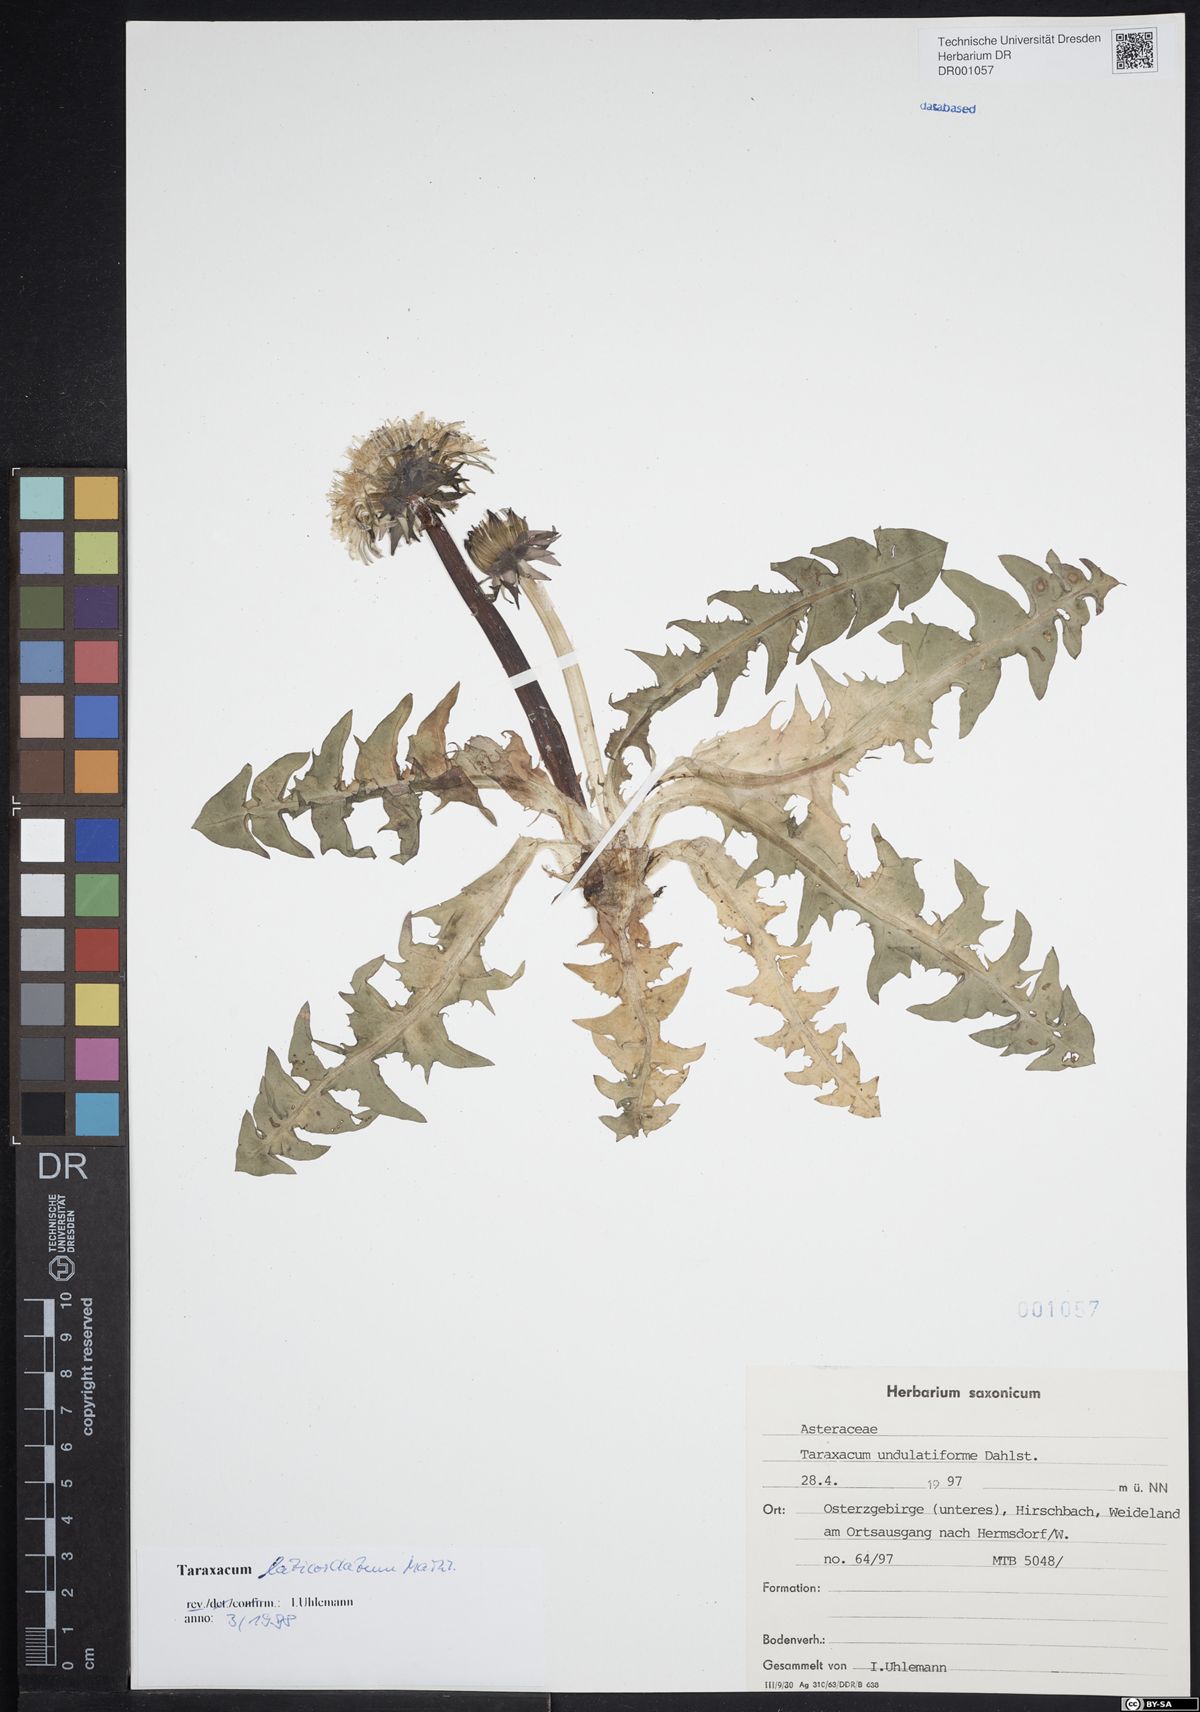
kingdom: Plantae
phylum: Tracheophyta
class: Magnoliopsida
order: Asterales
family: Asteraceae
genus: Taraxacum
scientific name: Taraxacum laticordatum
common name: Decumbent dandelion
